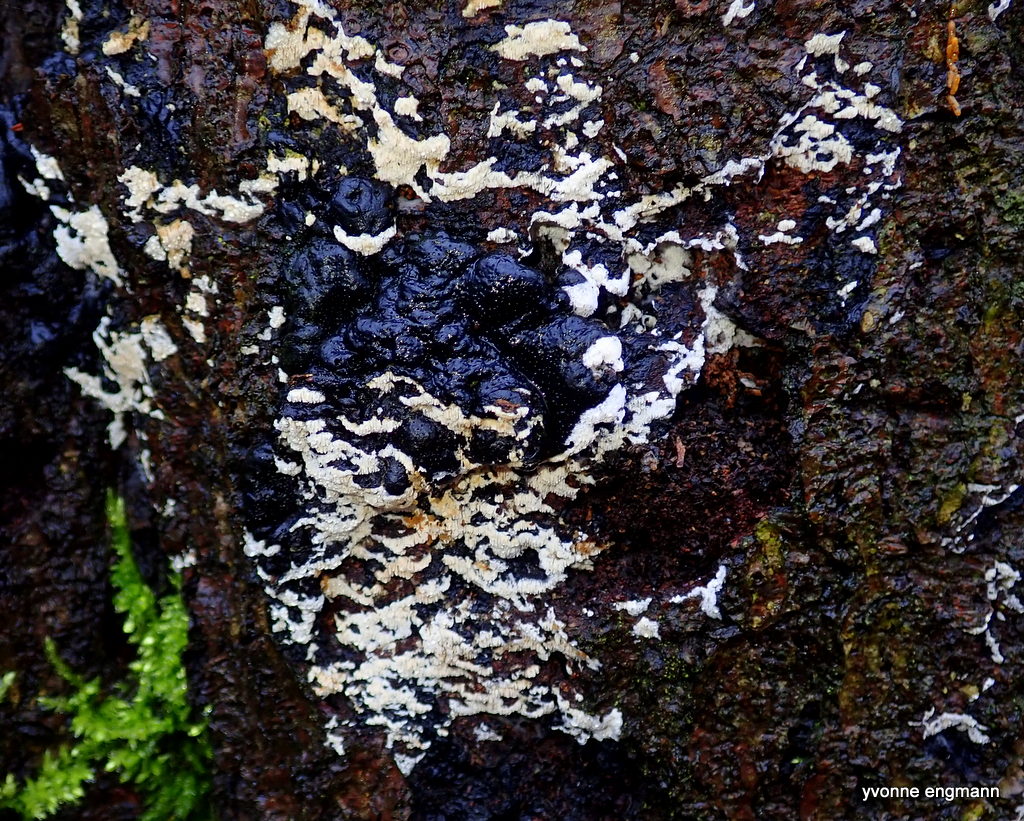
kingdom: Fungi
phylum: Basidiomycota
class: Agaricomycetes
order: Hymenochaetales
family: Schizoporaceae
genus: Schizopora
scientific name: Schizopora paradoxa
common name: hvid tandsvamp
